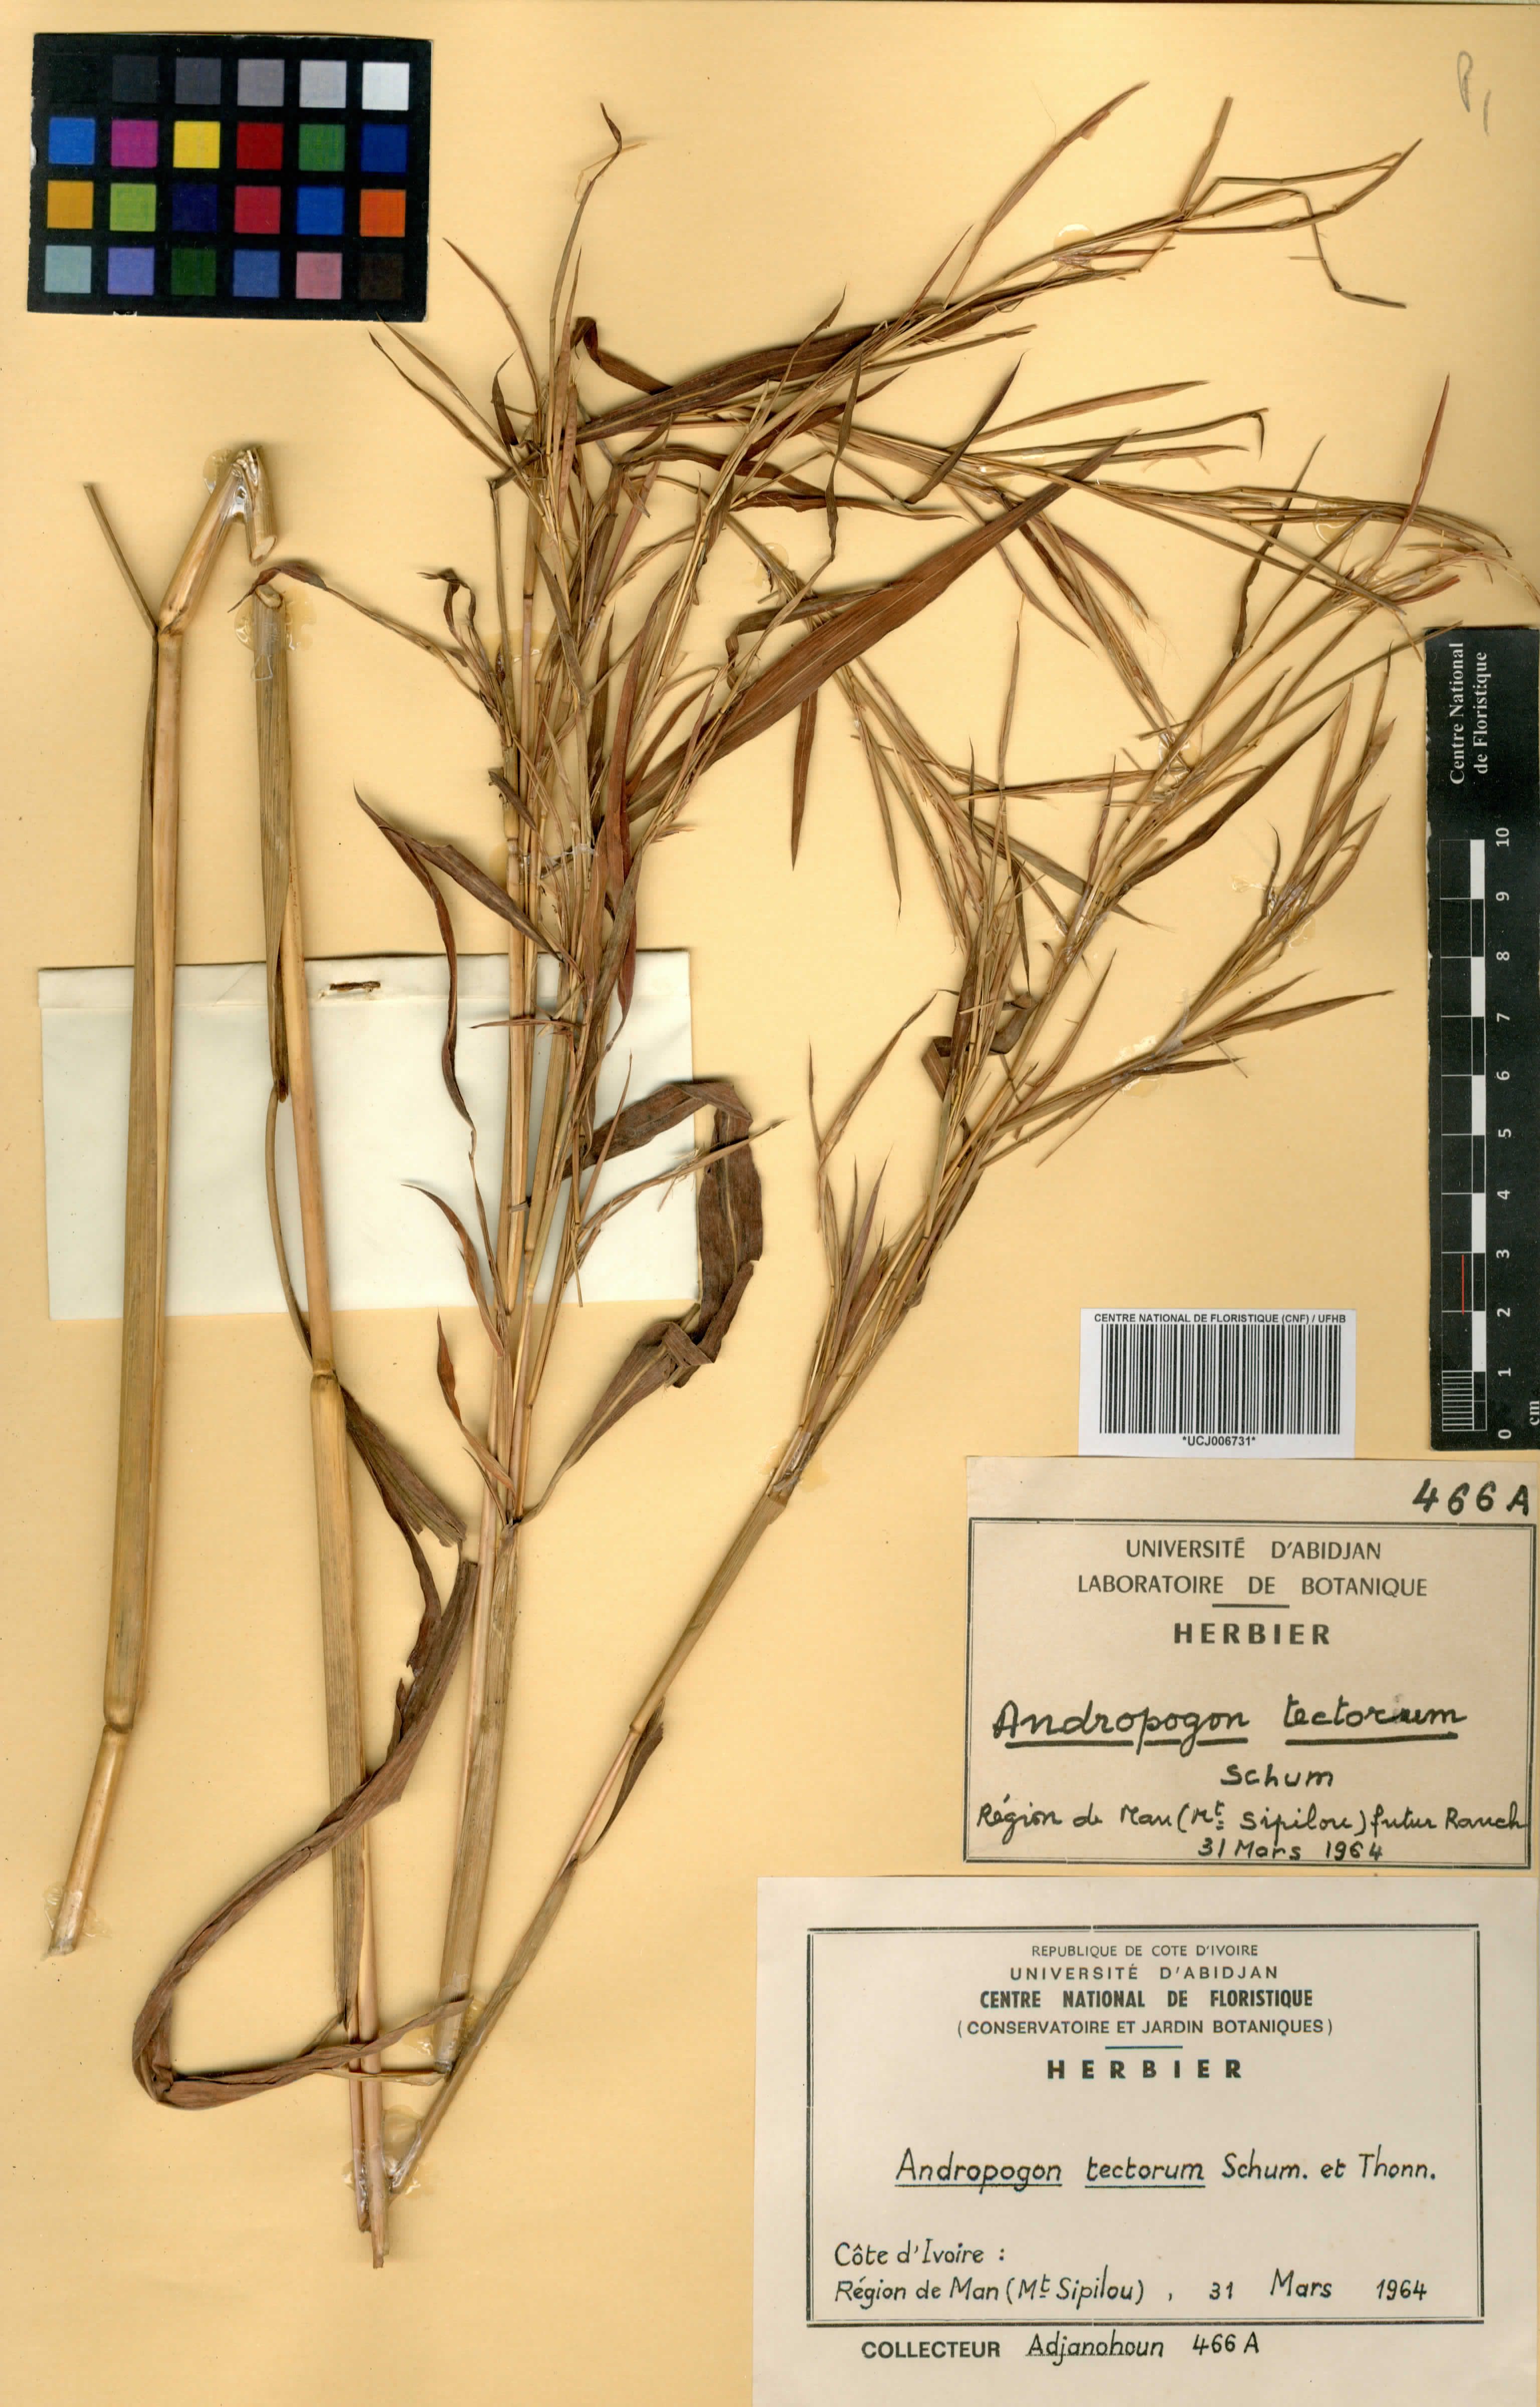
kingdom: Plantae
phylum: Tracheophyta
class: Liliopsida
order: Poales
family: Poaceae
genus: Andropogon
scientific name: Andropogon tectorum
